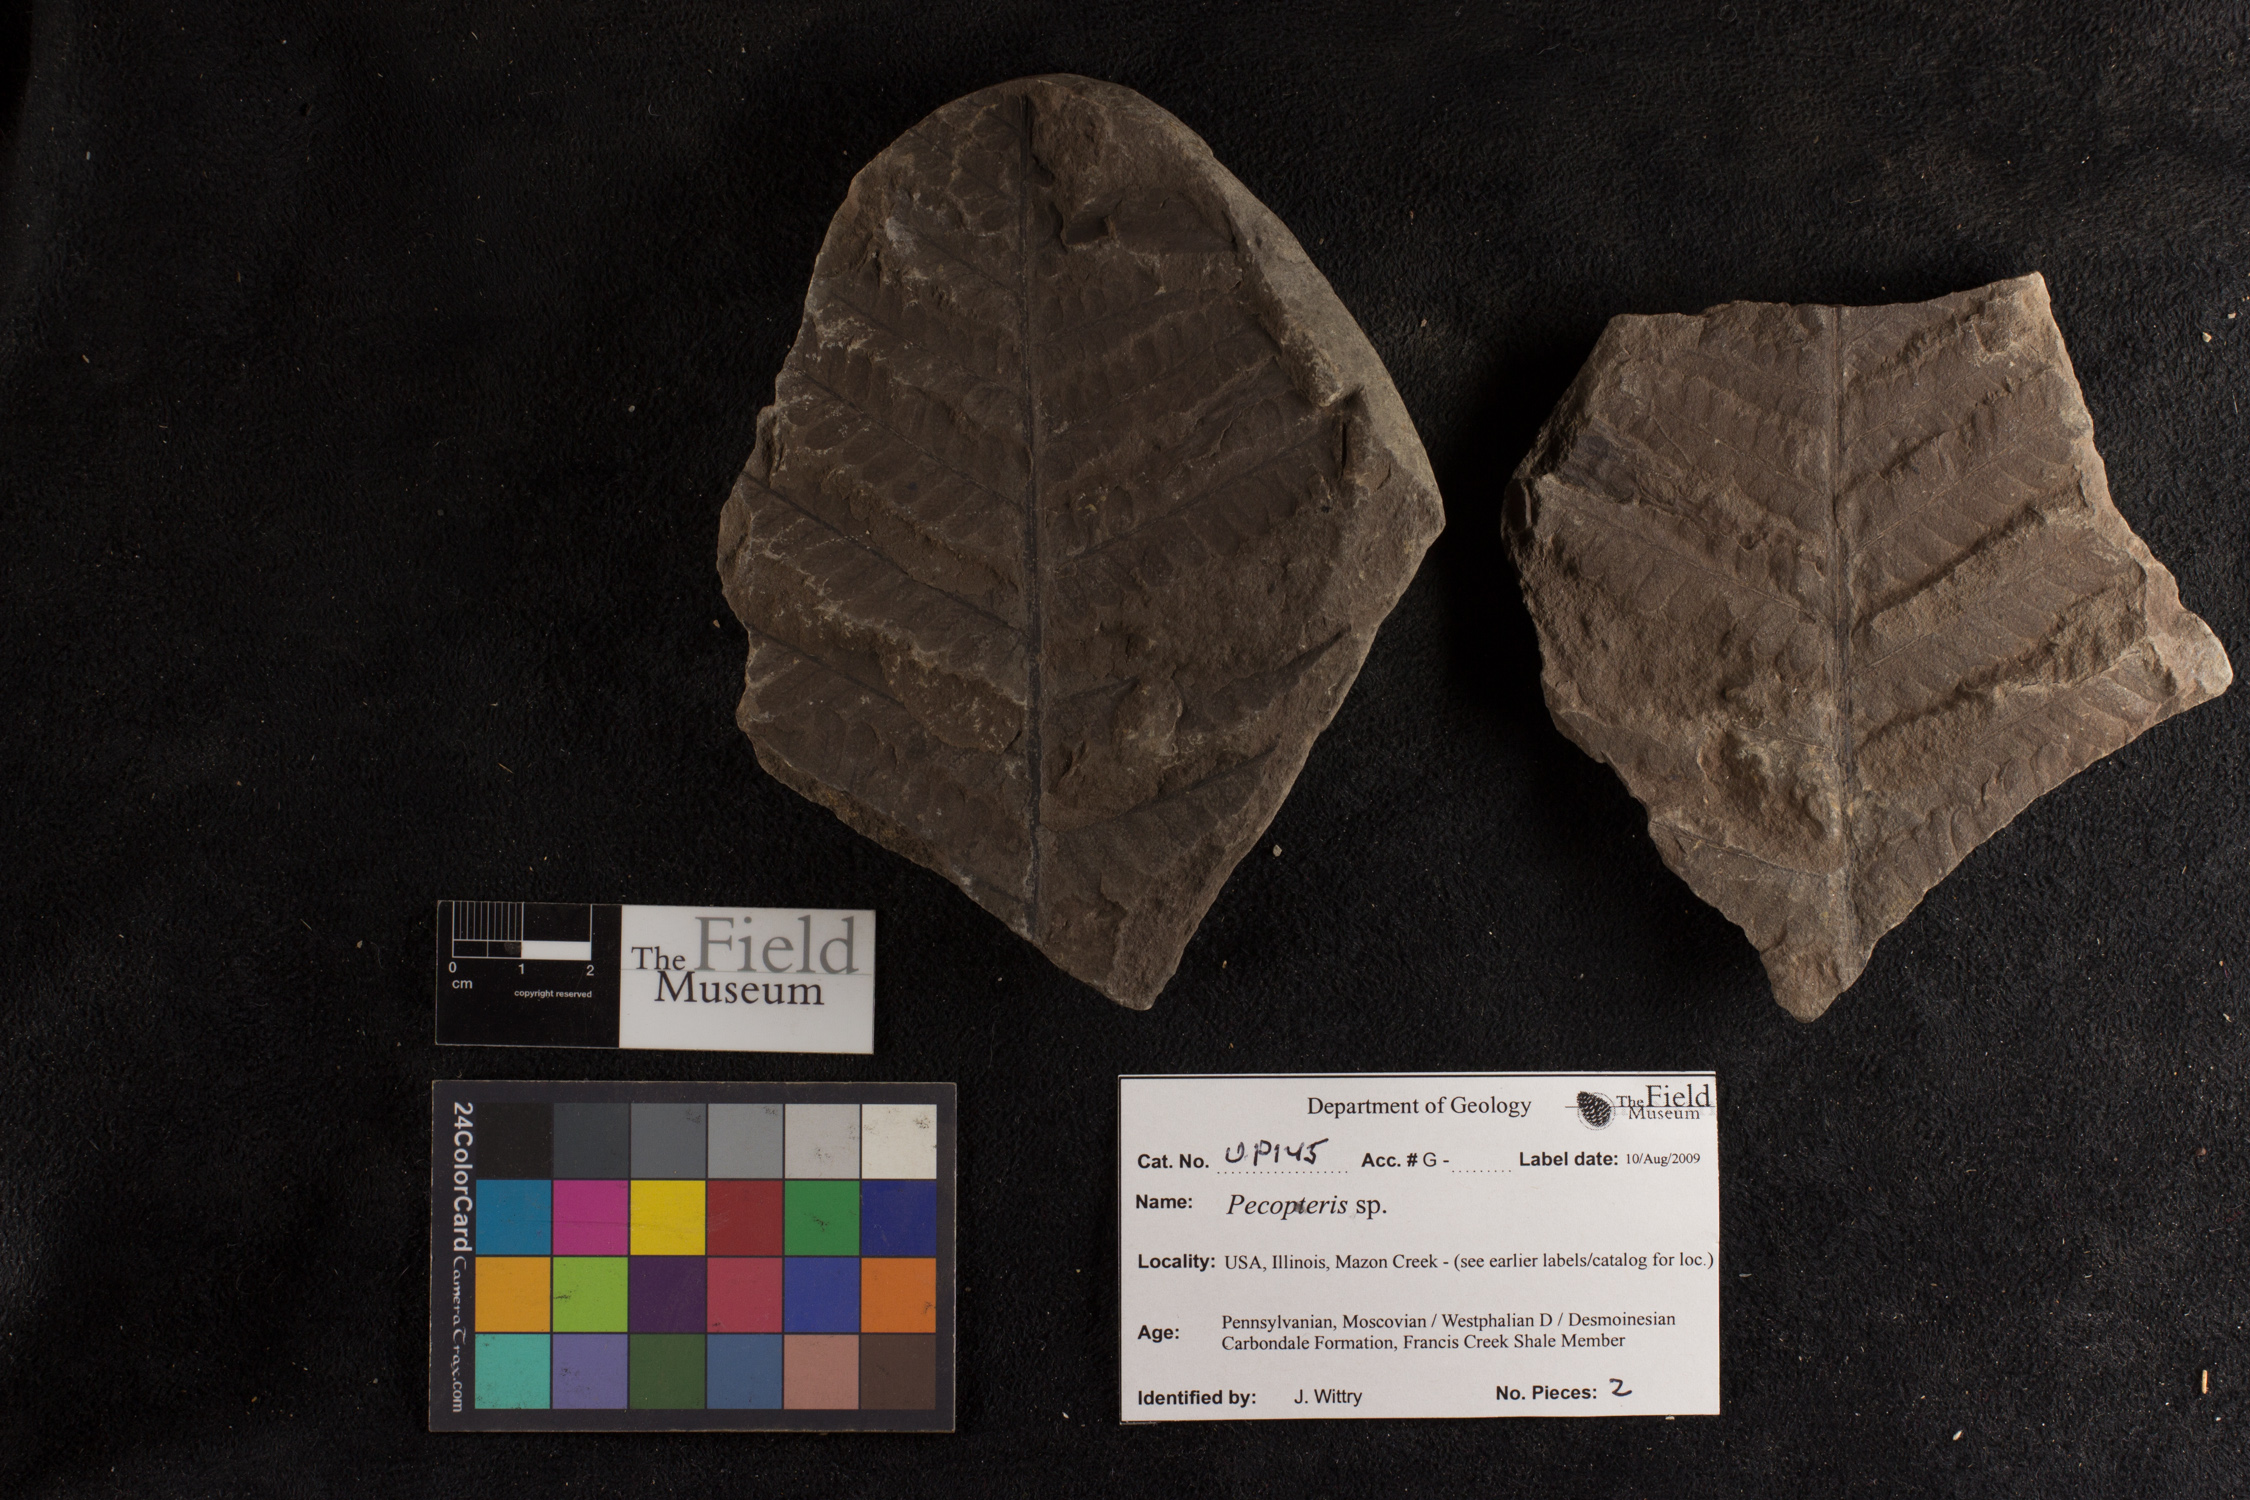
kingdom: Plantae
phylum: Tracheophyta
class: Polypodiopsida
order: Marattiales
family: Asterothecaceae
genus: Pecopteris
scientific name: Pecopteris
